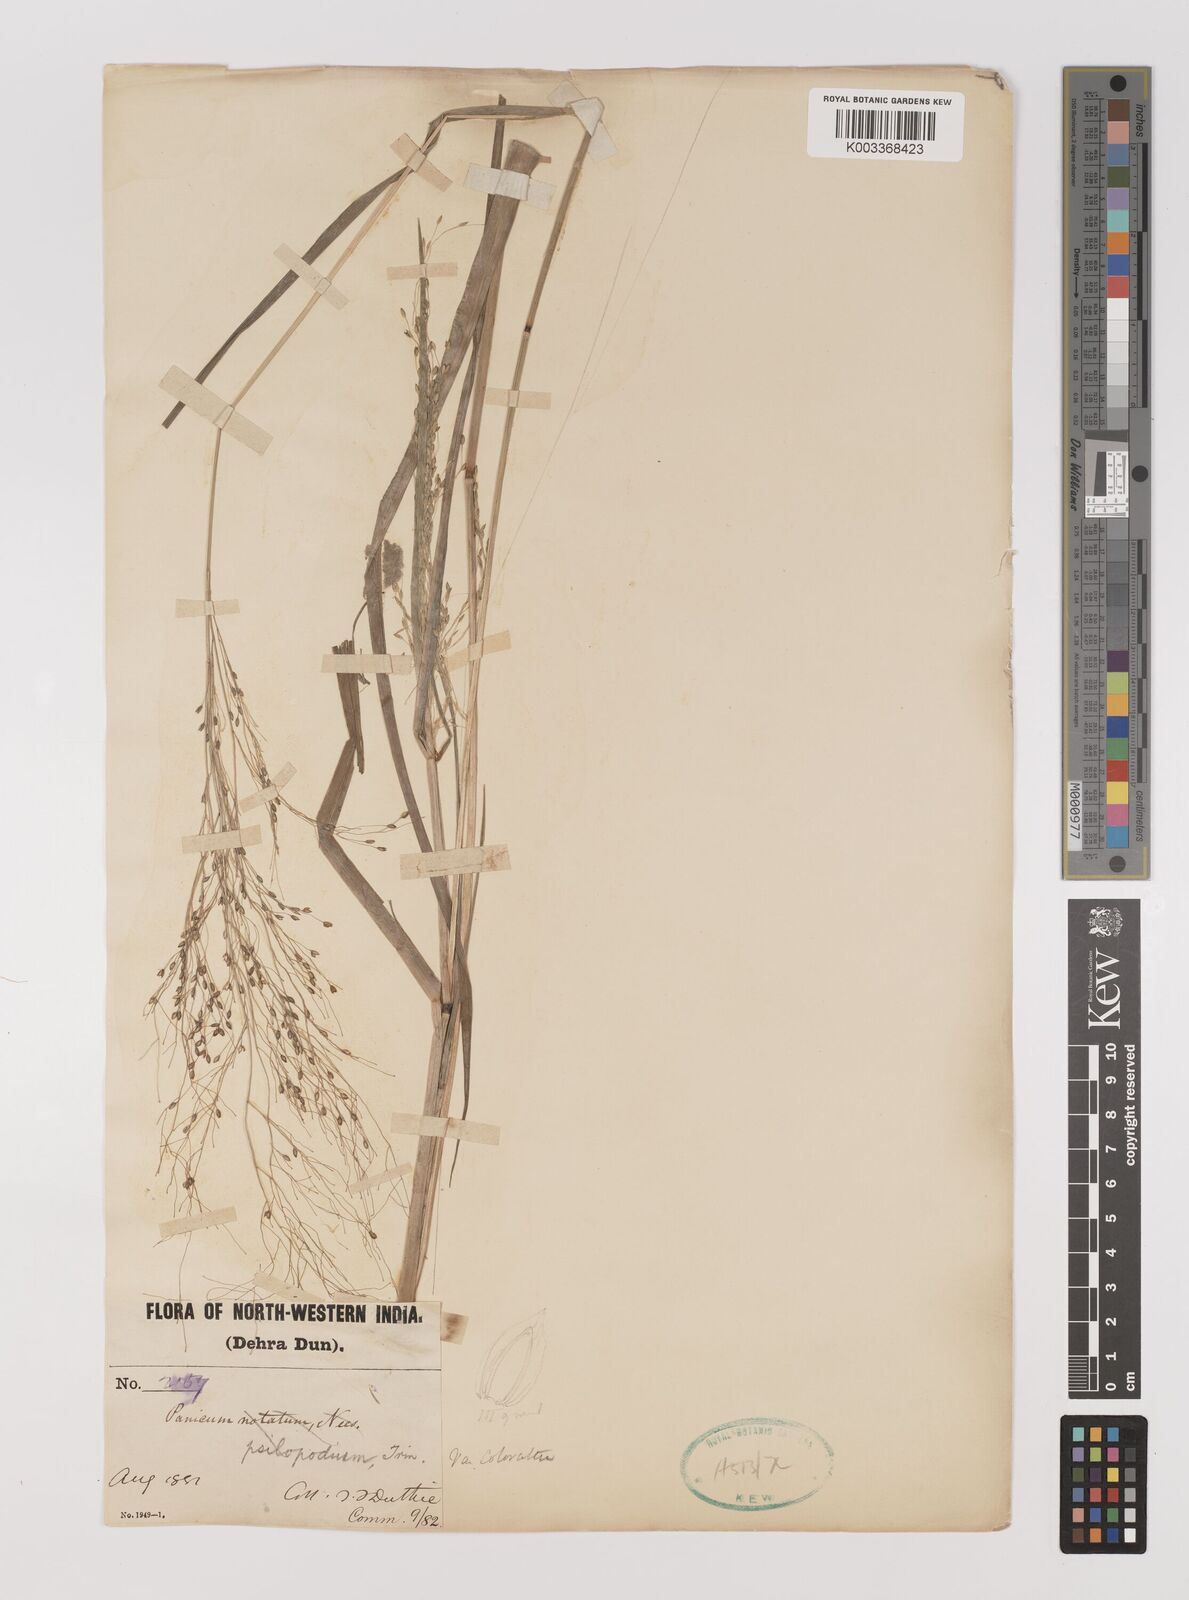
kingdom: Plantae
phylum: Tracheophyta
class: Liliopsida
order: Poales
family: Poaceae
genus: Panicum
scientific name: Panicum sumatrense
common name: Little millet
